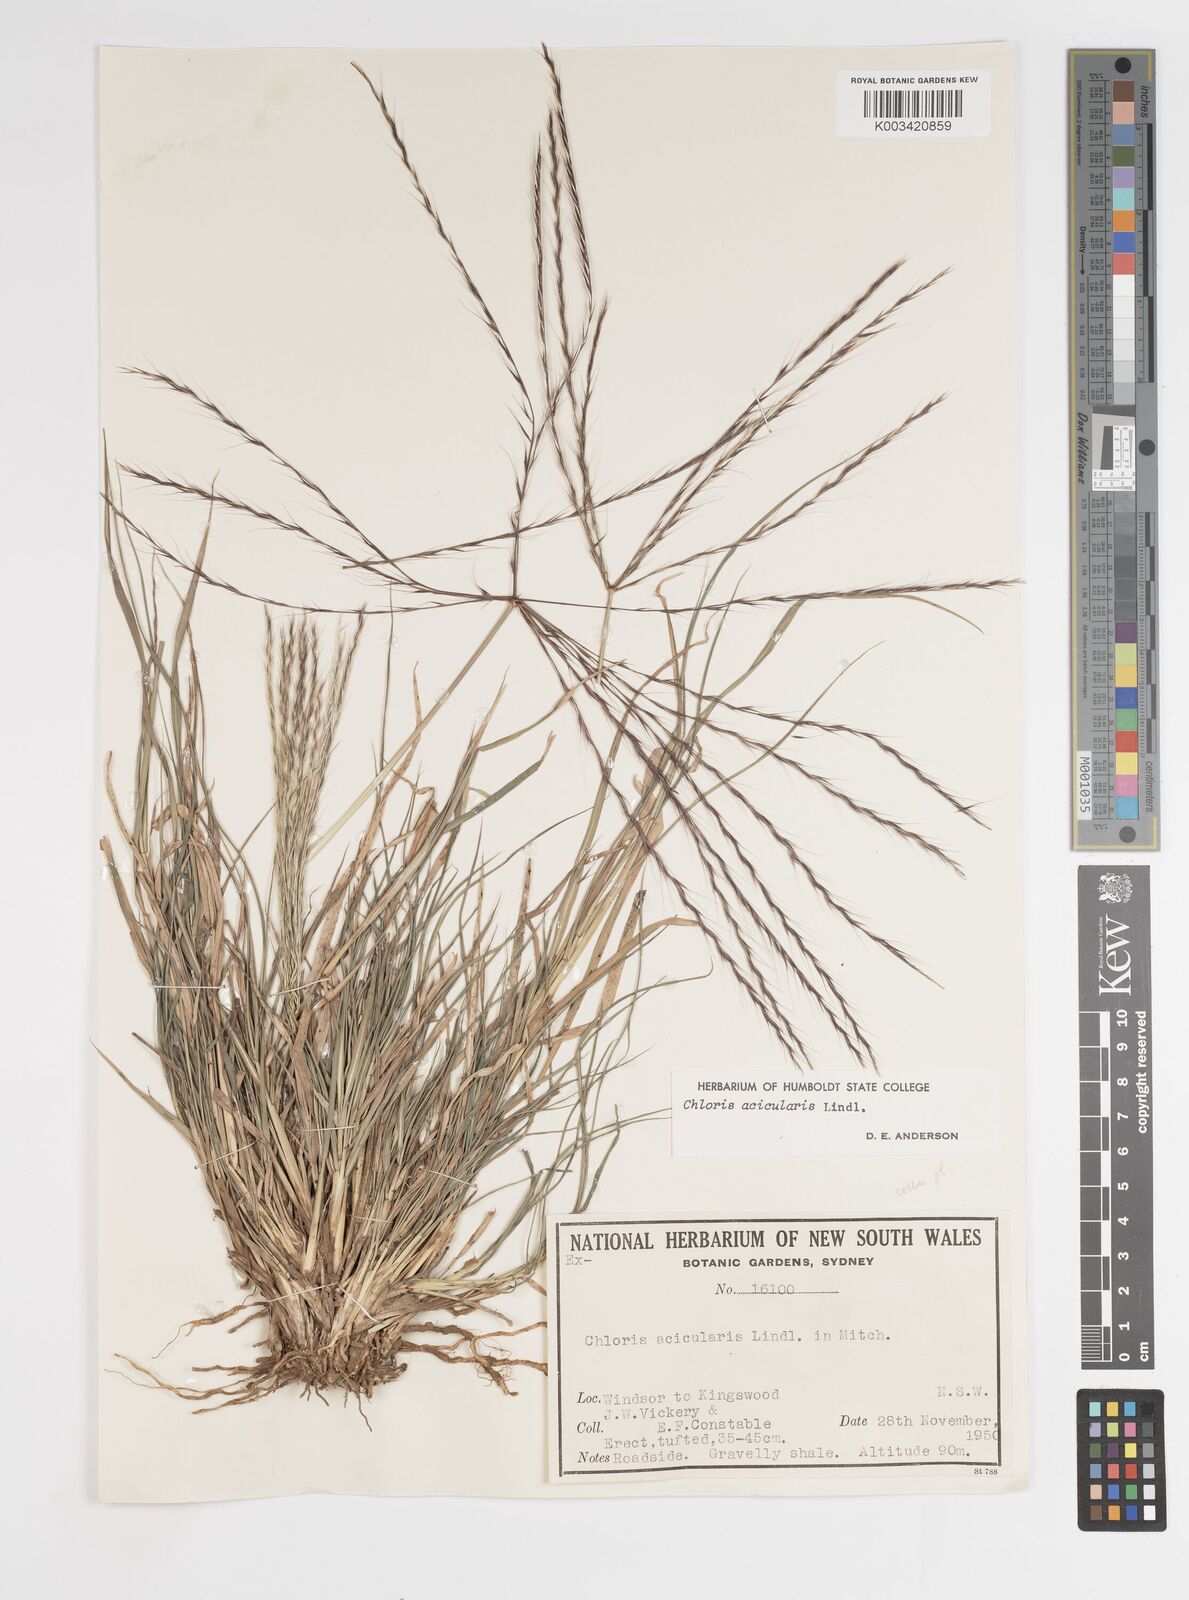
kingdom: Plantae
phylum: Tracheophyta
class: Liliopsida
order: Poales
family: Poaceae
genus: Enteropogon
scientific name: Enteropogon acicularis
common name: Curly windmill grass
